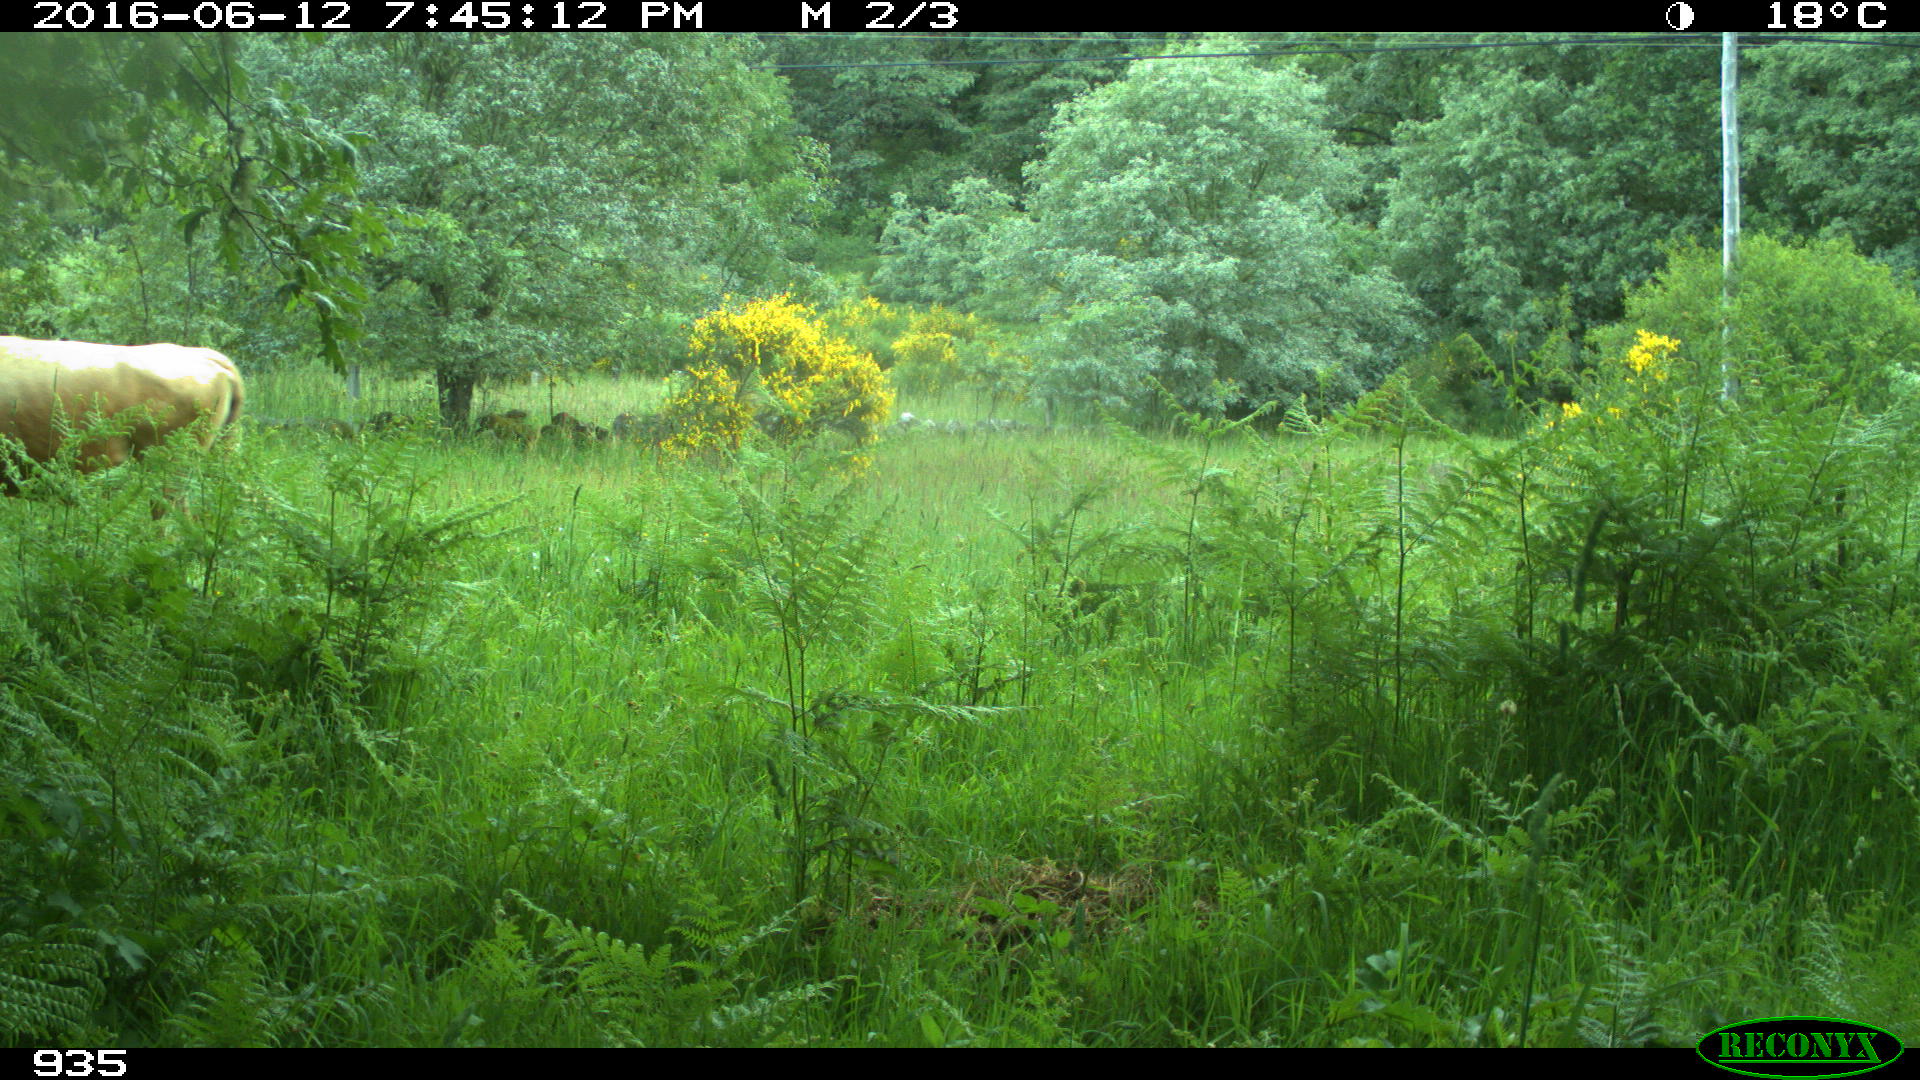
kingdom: Animalia
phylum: Chordata
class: Mammalia
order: Artiodactyla
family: Bovidae
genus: Bos
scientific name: Bos taurus
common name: Domesticated cattle
